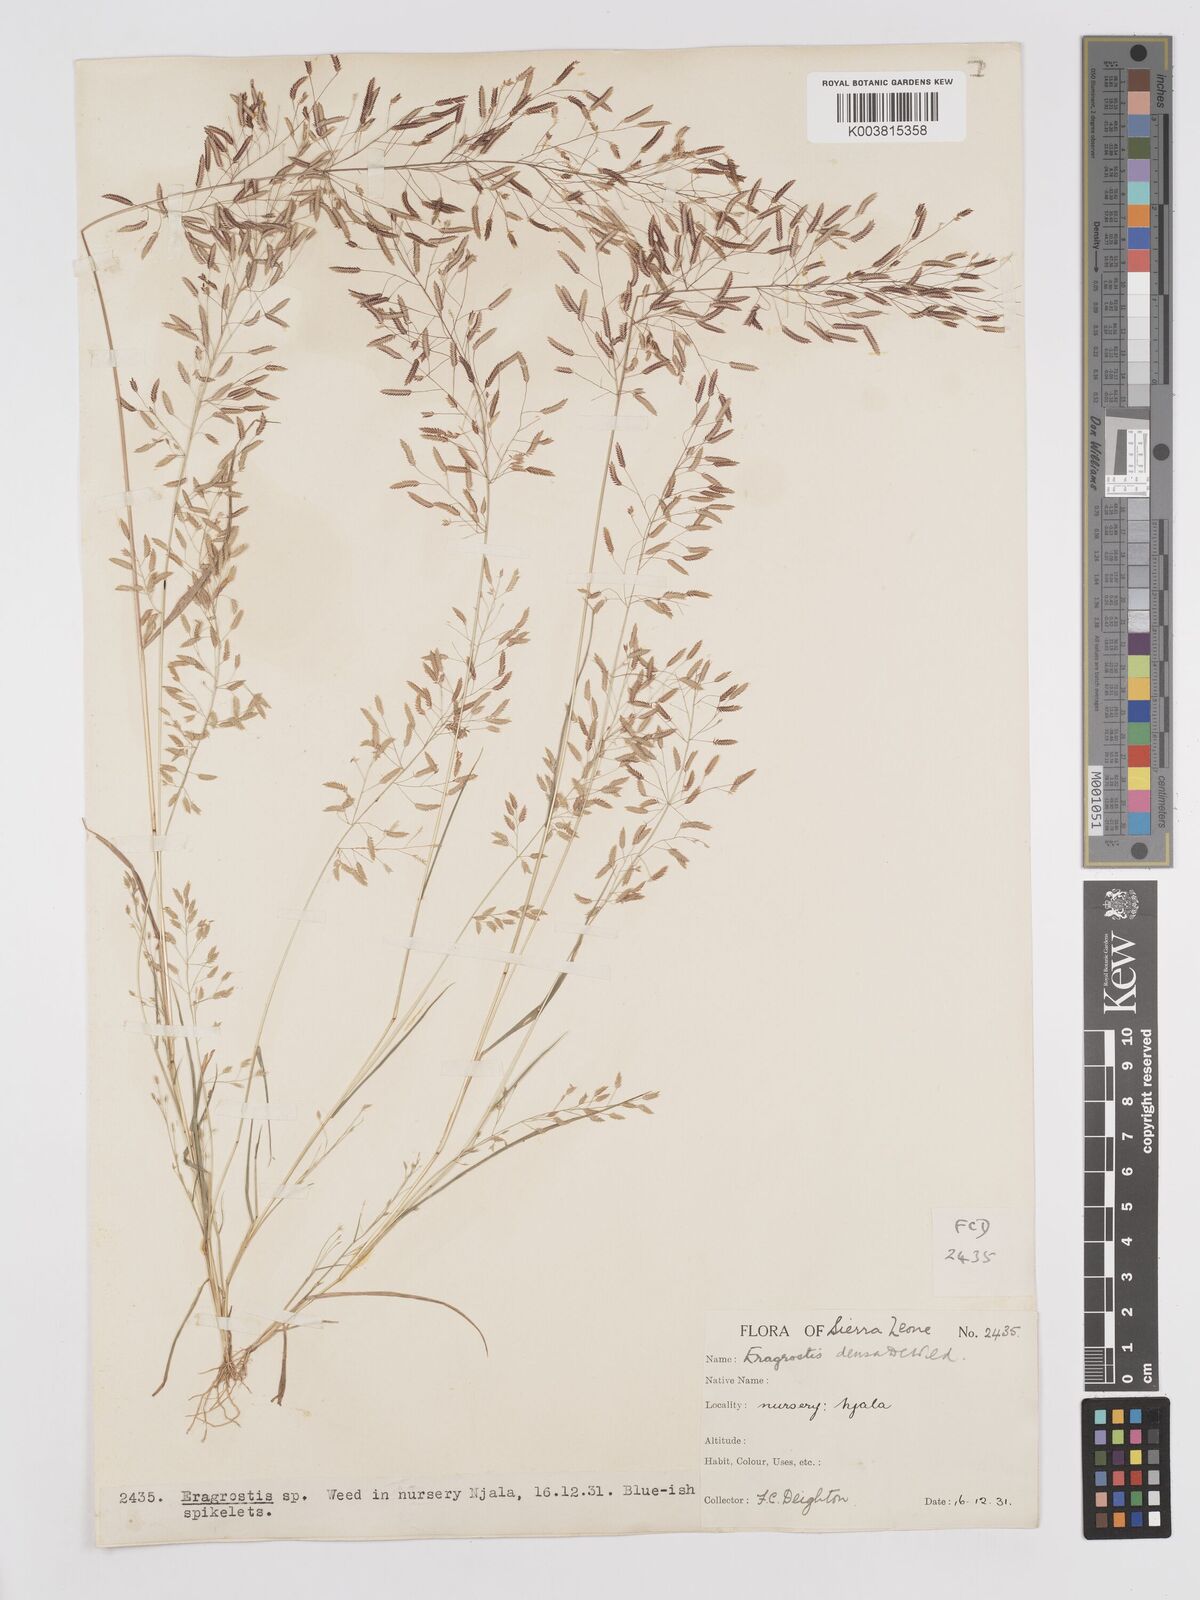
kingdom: Plantae
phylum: Tracheophyta
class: Liliopsida
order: Poales
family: Poaceae
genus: Eragrostis
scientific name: Eragrostis welwitschii
